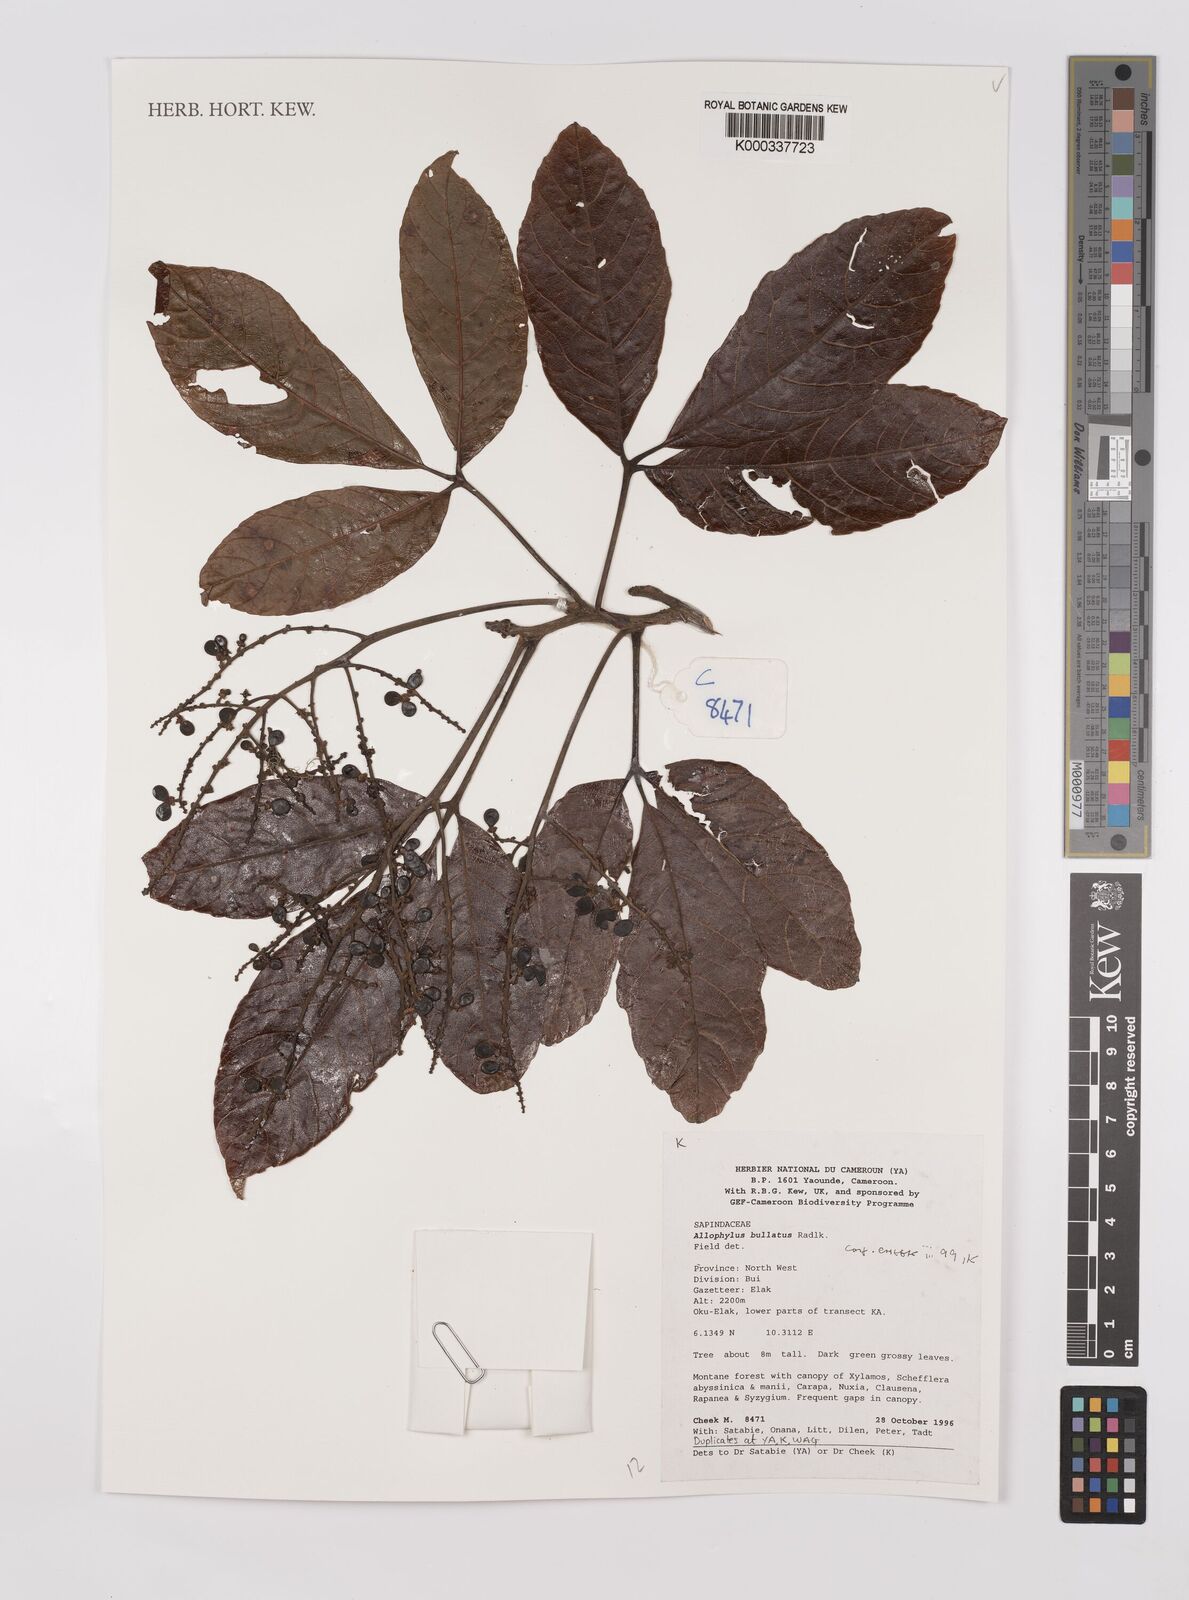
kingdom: Plantae
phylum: Tracheophyta
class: Magnoliopsida
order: Sapindales
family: Sapindaceae
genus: Allophylus
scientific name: Allophylus bullatus
